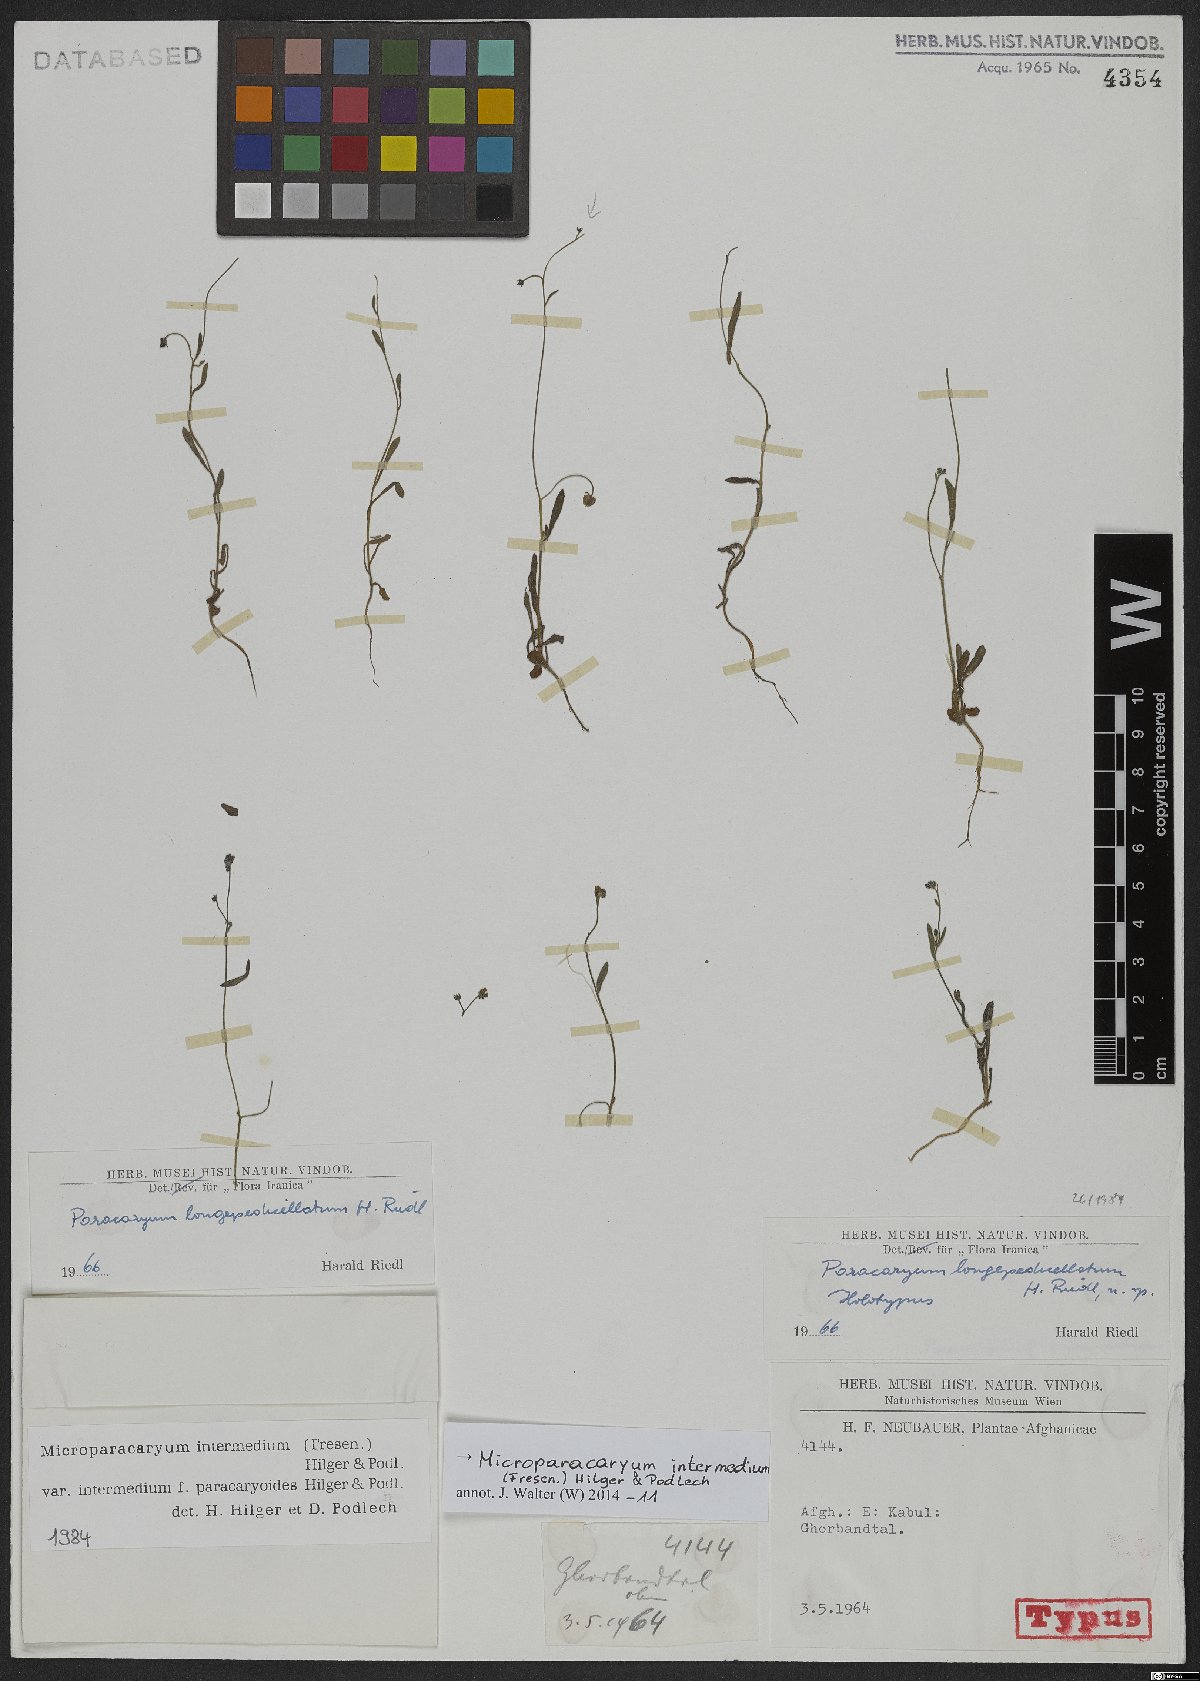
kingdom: Plantae
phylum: Tracheophyta
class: Magnoliopsida
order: Boraginales
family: Boraginaceae
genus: Microparacaryum
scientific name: Microparacaryum intermedium
